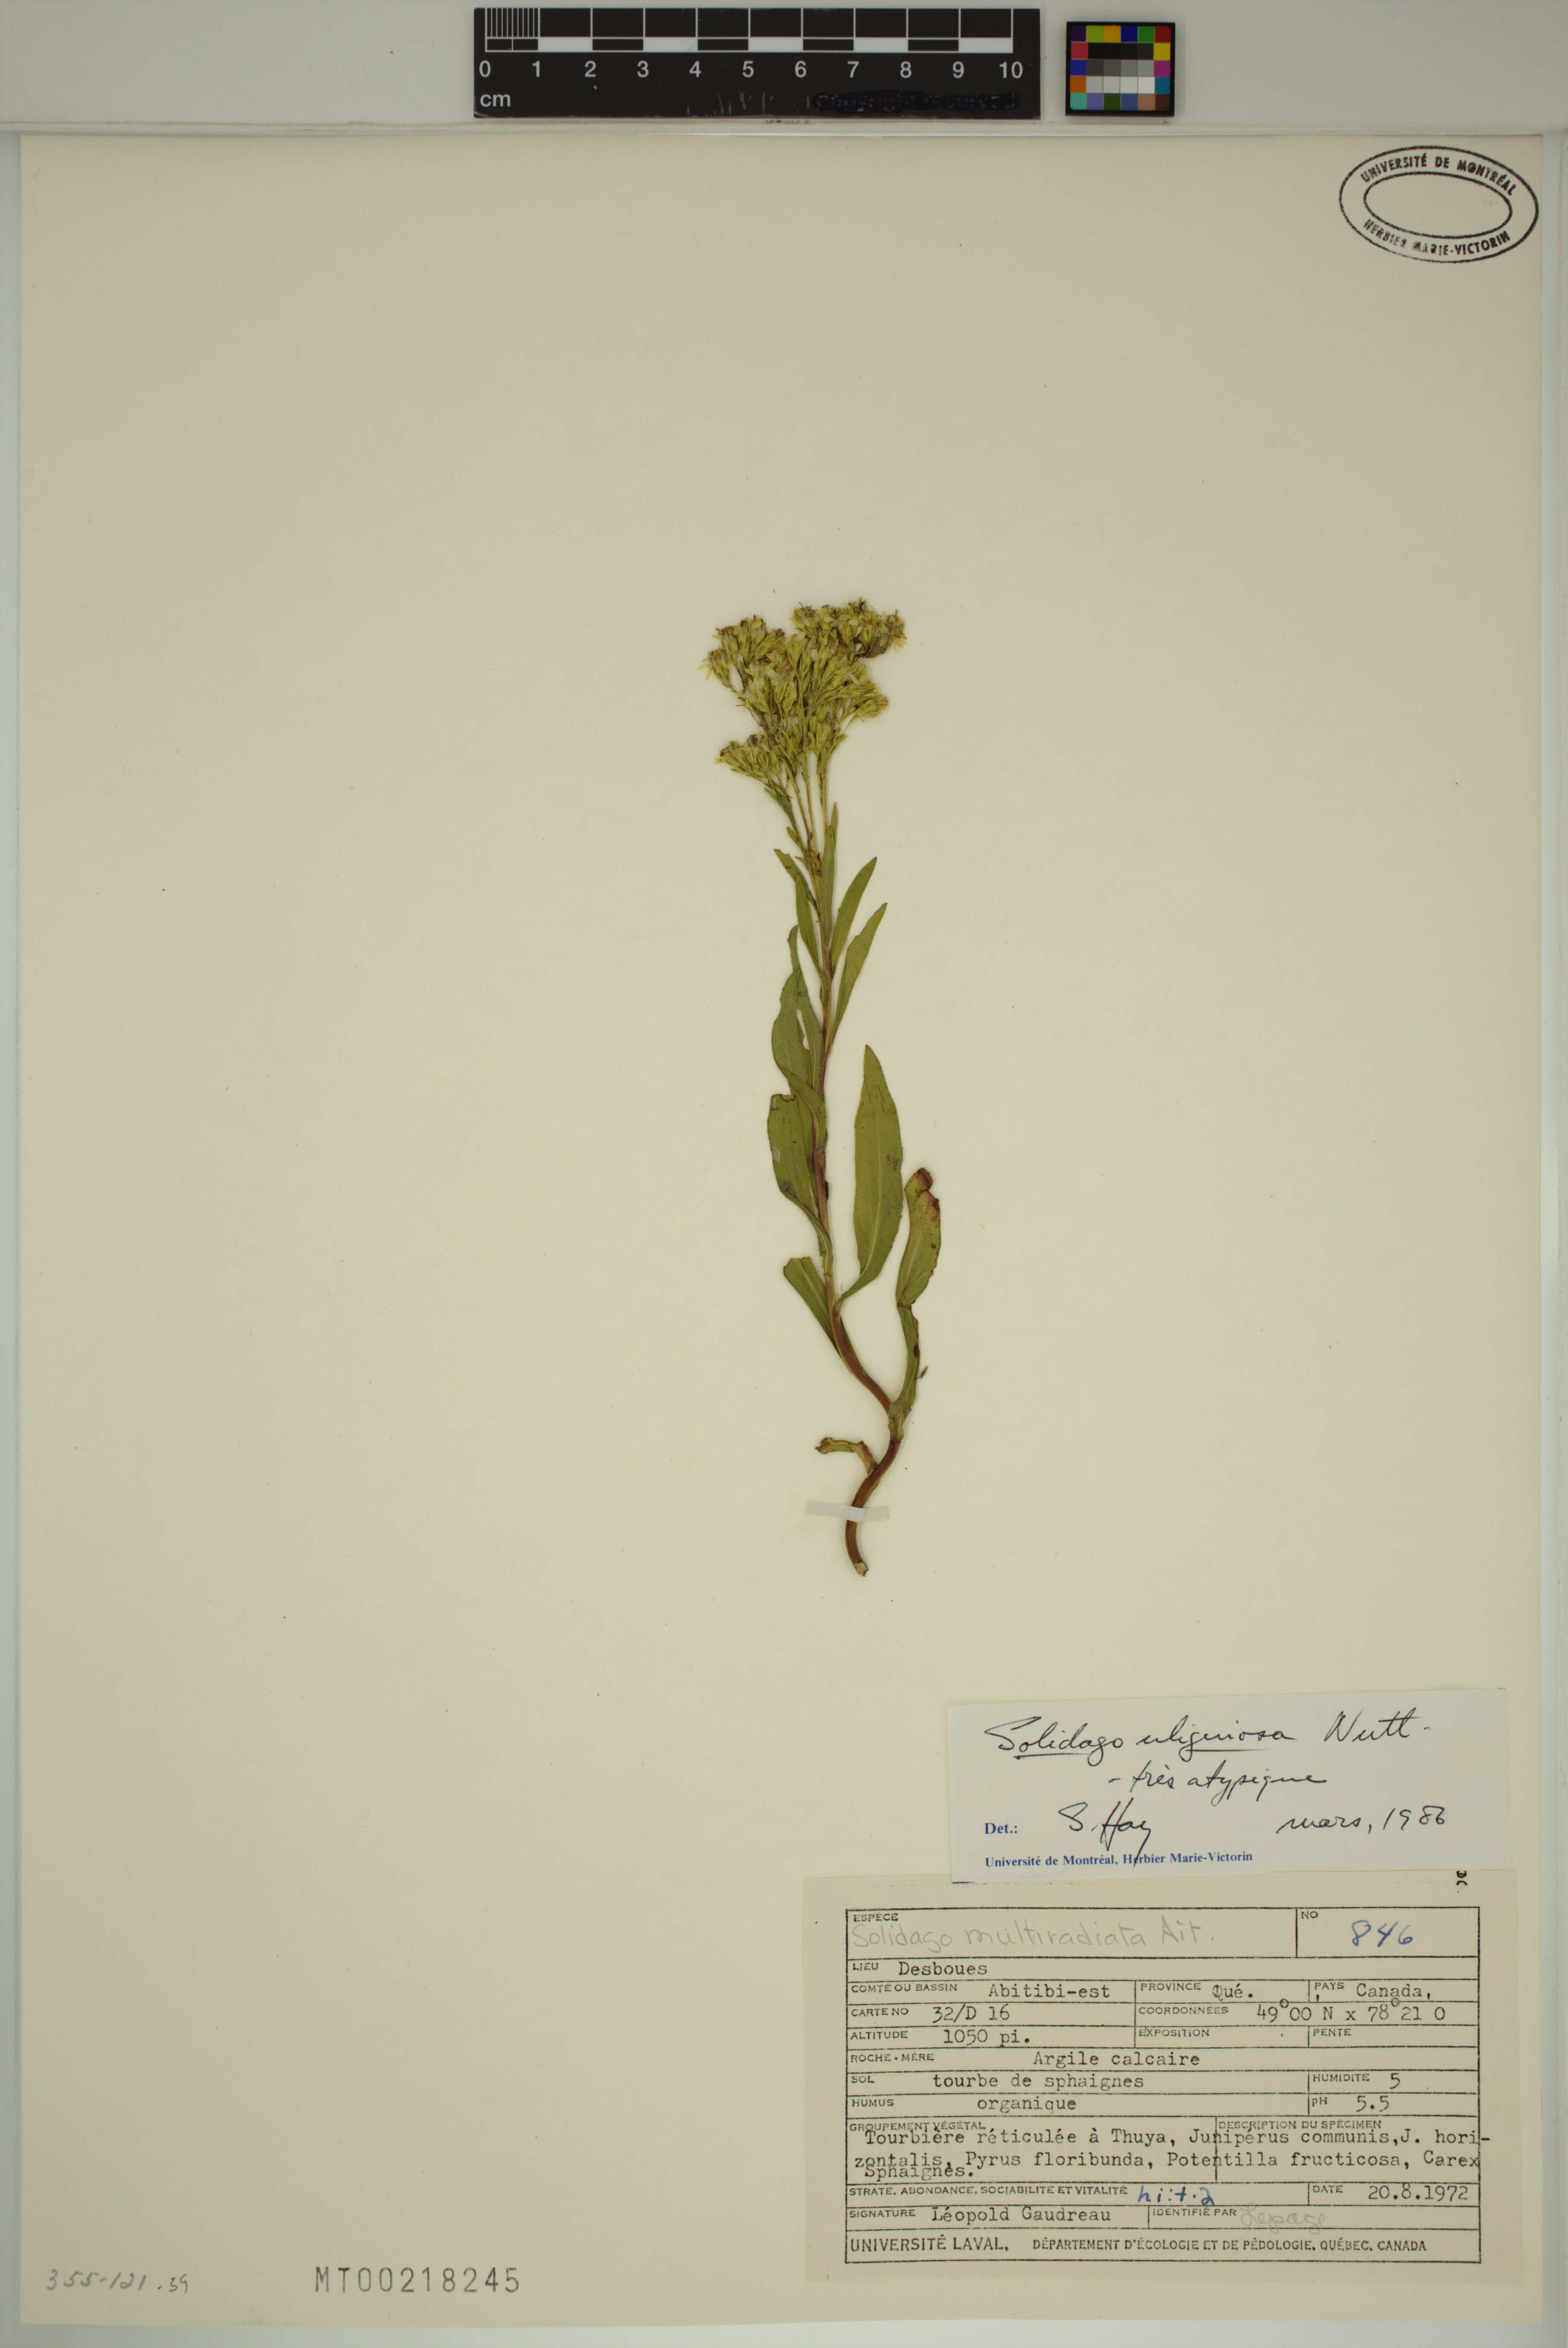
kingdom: Plantae
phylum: Tracheophyta
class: Magnoliopsida
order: Asterales
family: Asteraceae
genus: Solidago
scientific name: Solidago uliginosa
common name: Bog goldenrod
